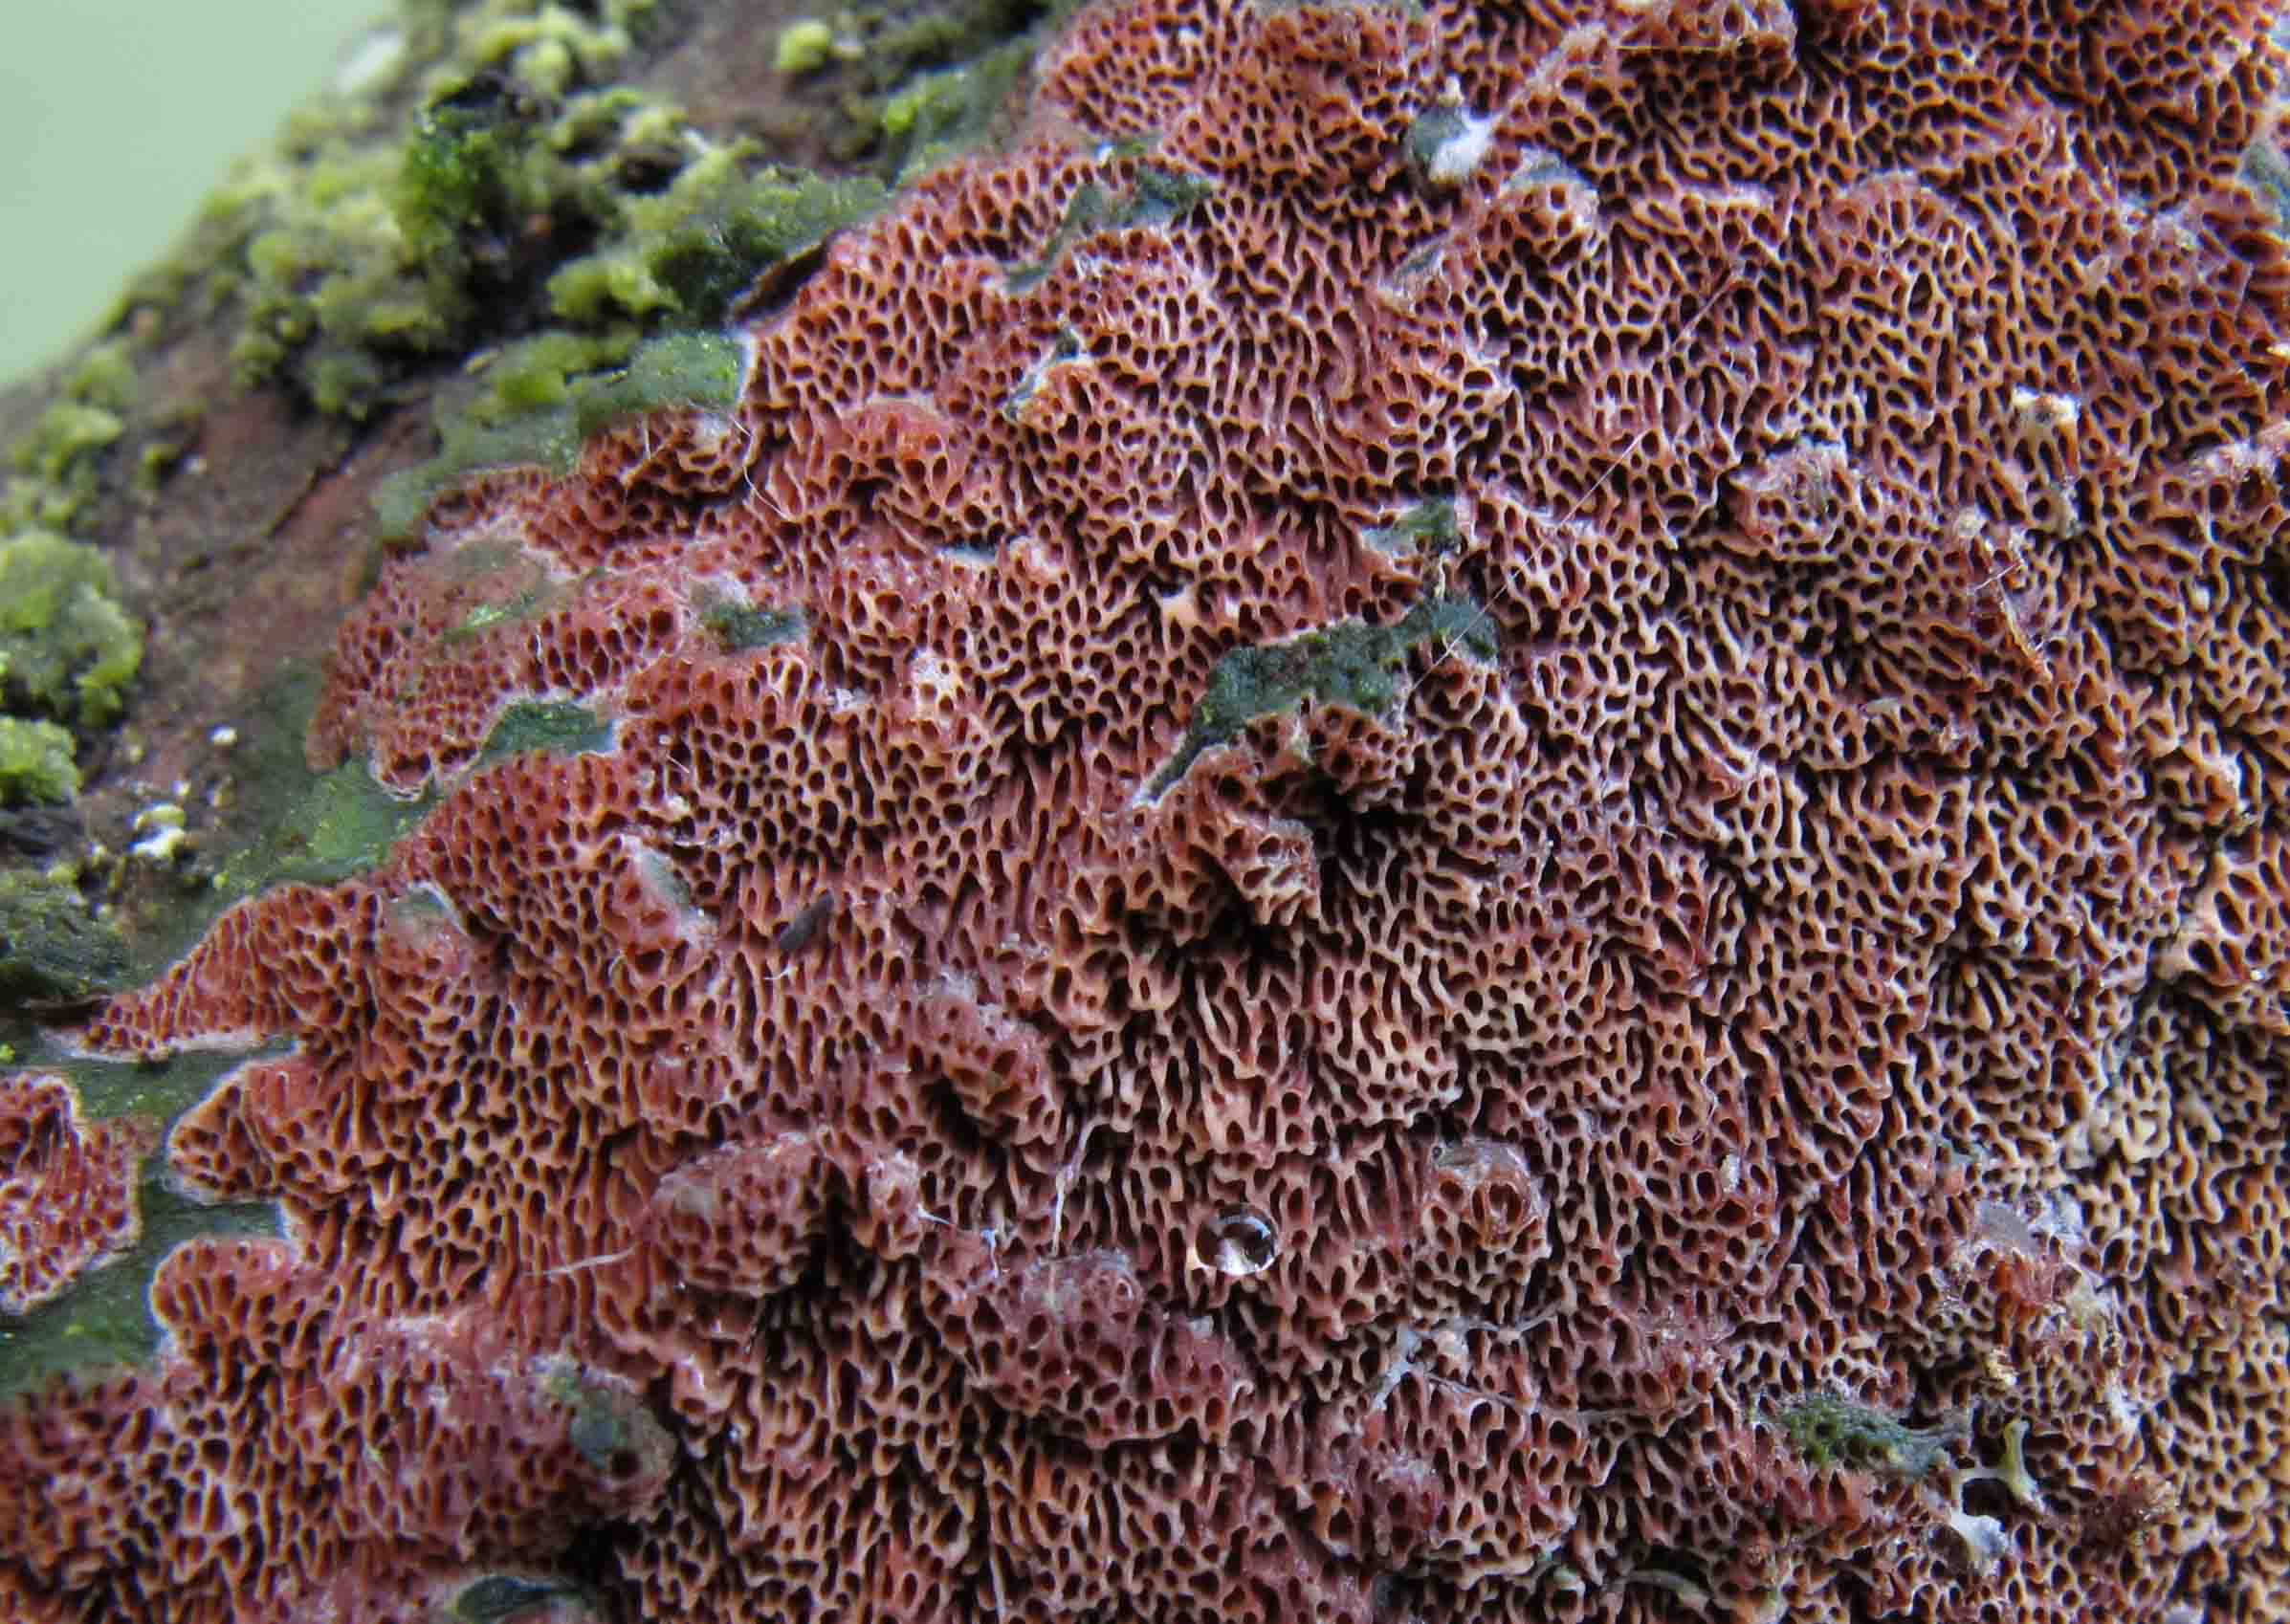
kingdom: Fungi
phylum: Basidiomycota
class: Agaricomycetes
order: Polyporales
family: Irpicaceae
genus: Meruliopsis
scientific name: Meruliopsis taxicola
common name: purpurbrun foldporesvamp
